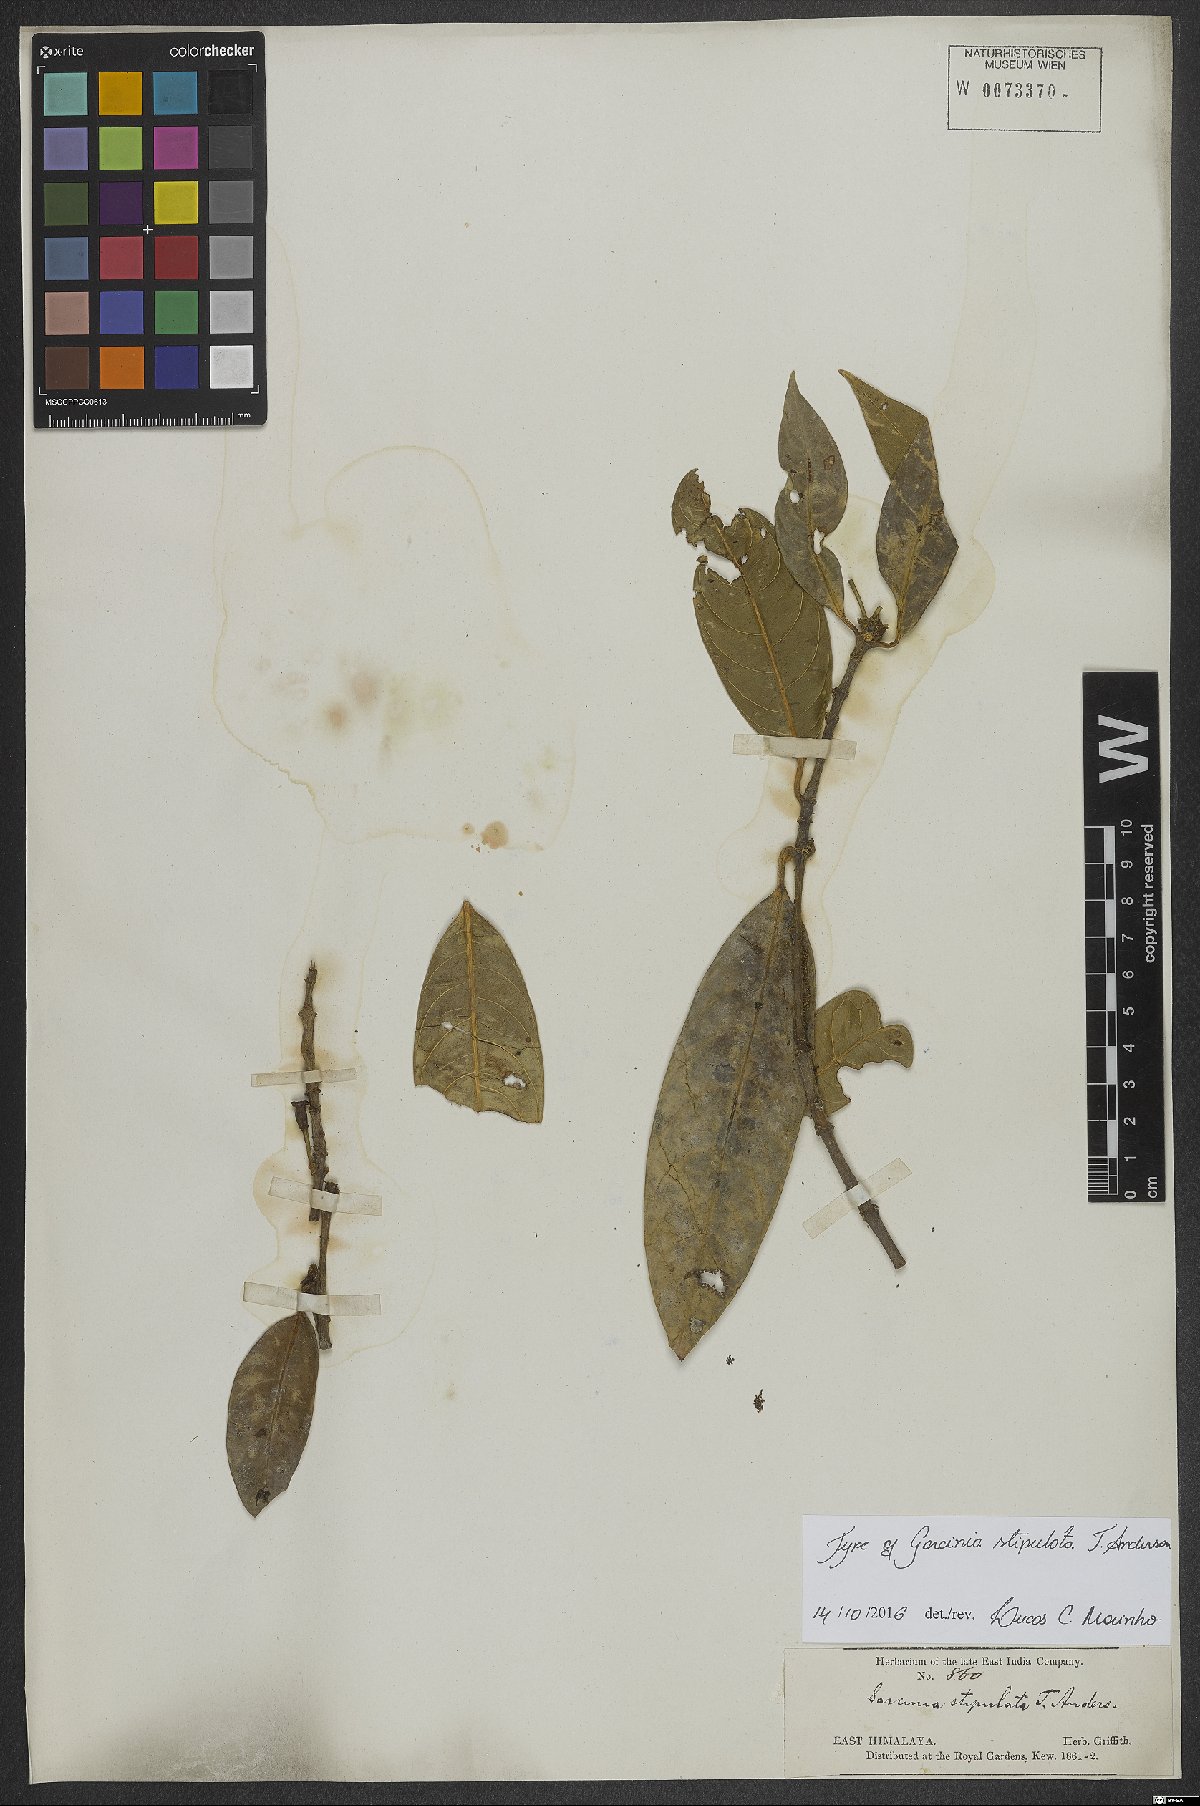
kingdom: Plantae
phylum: Tracheophyta
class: Magnoliopsida
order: Malpighiales
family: Clusiaceae
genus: Garcinia
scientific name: Garcinia stipulata
